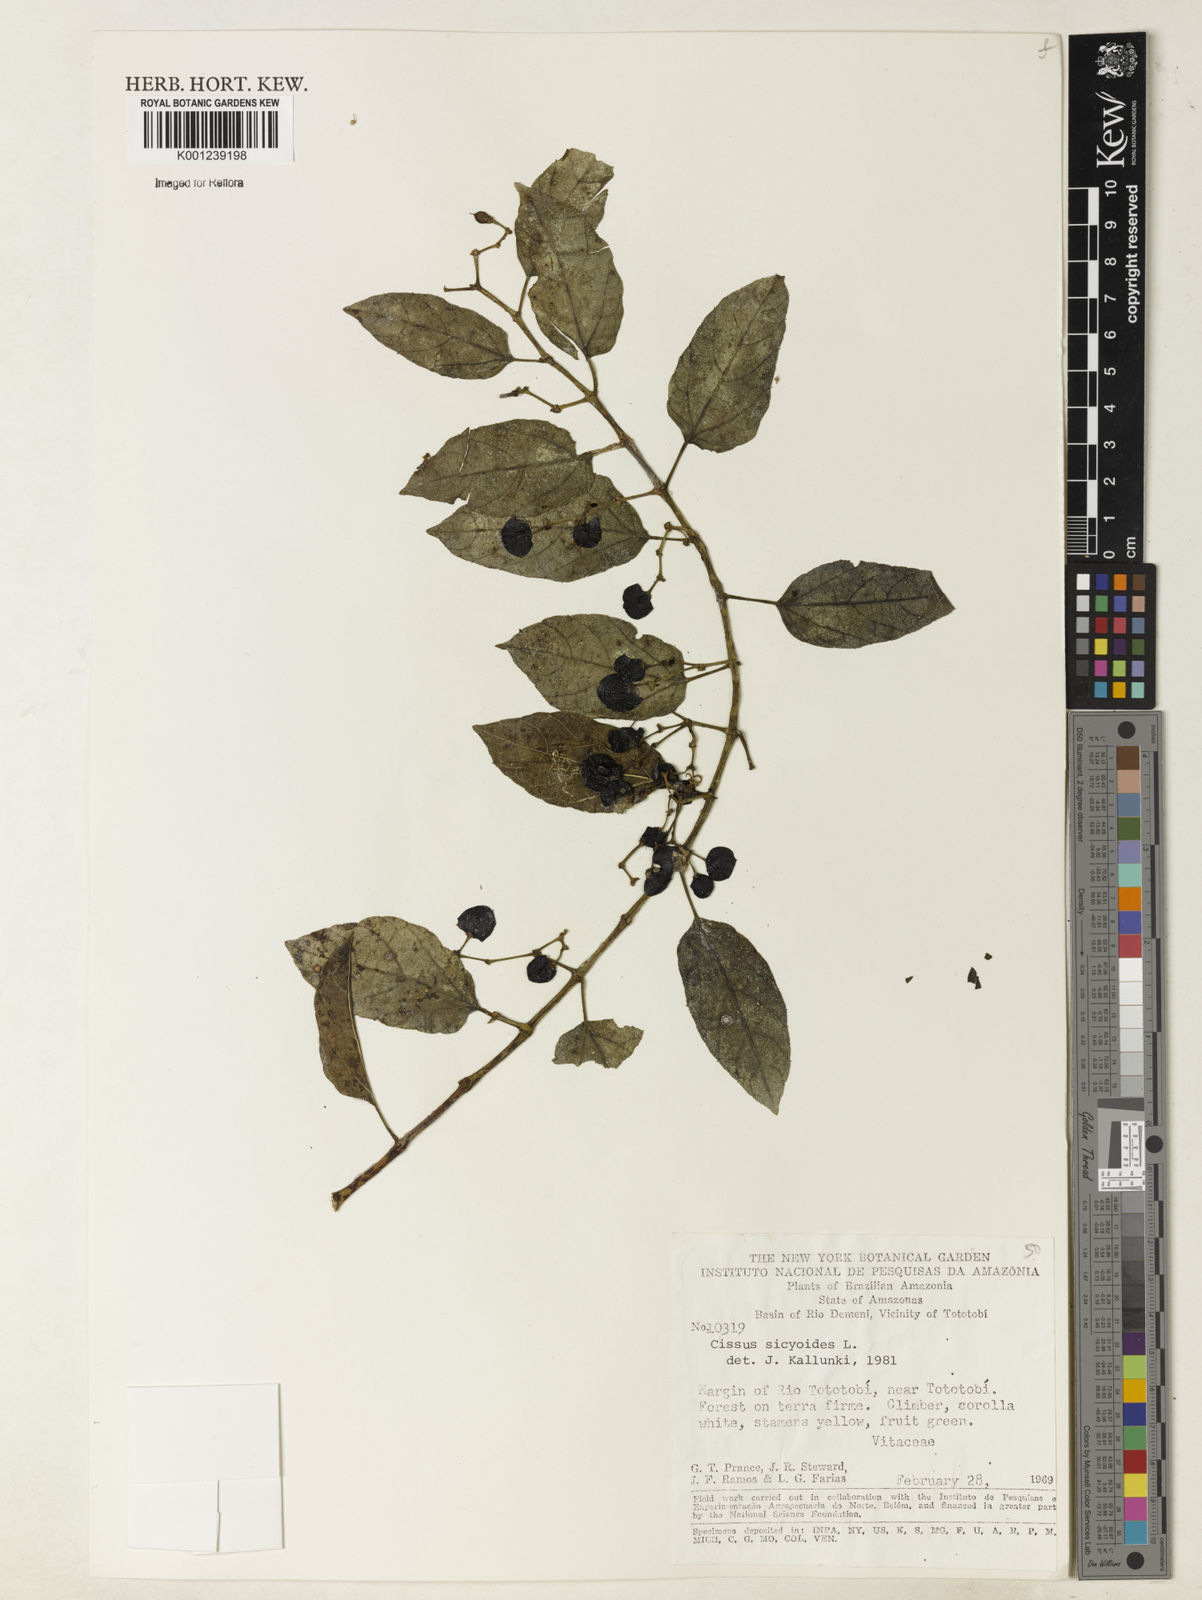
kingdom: Plantae
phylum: Tracheophyta
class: Magnoliopsida
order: Vitales
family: Vitaceae
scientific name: Vitaceae
